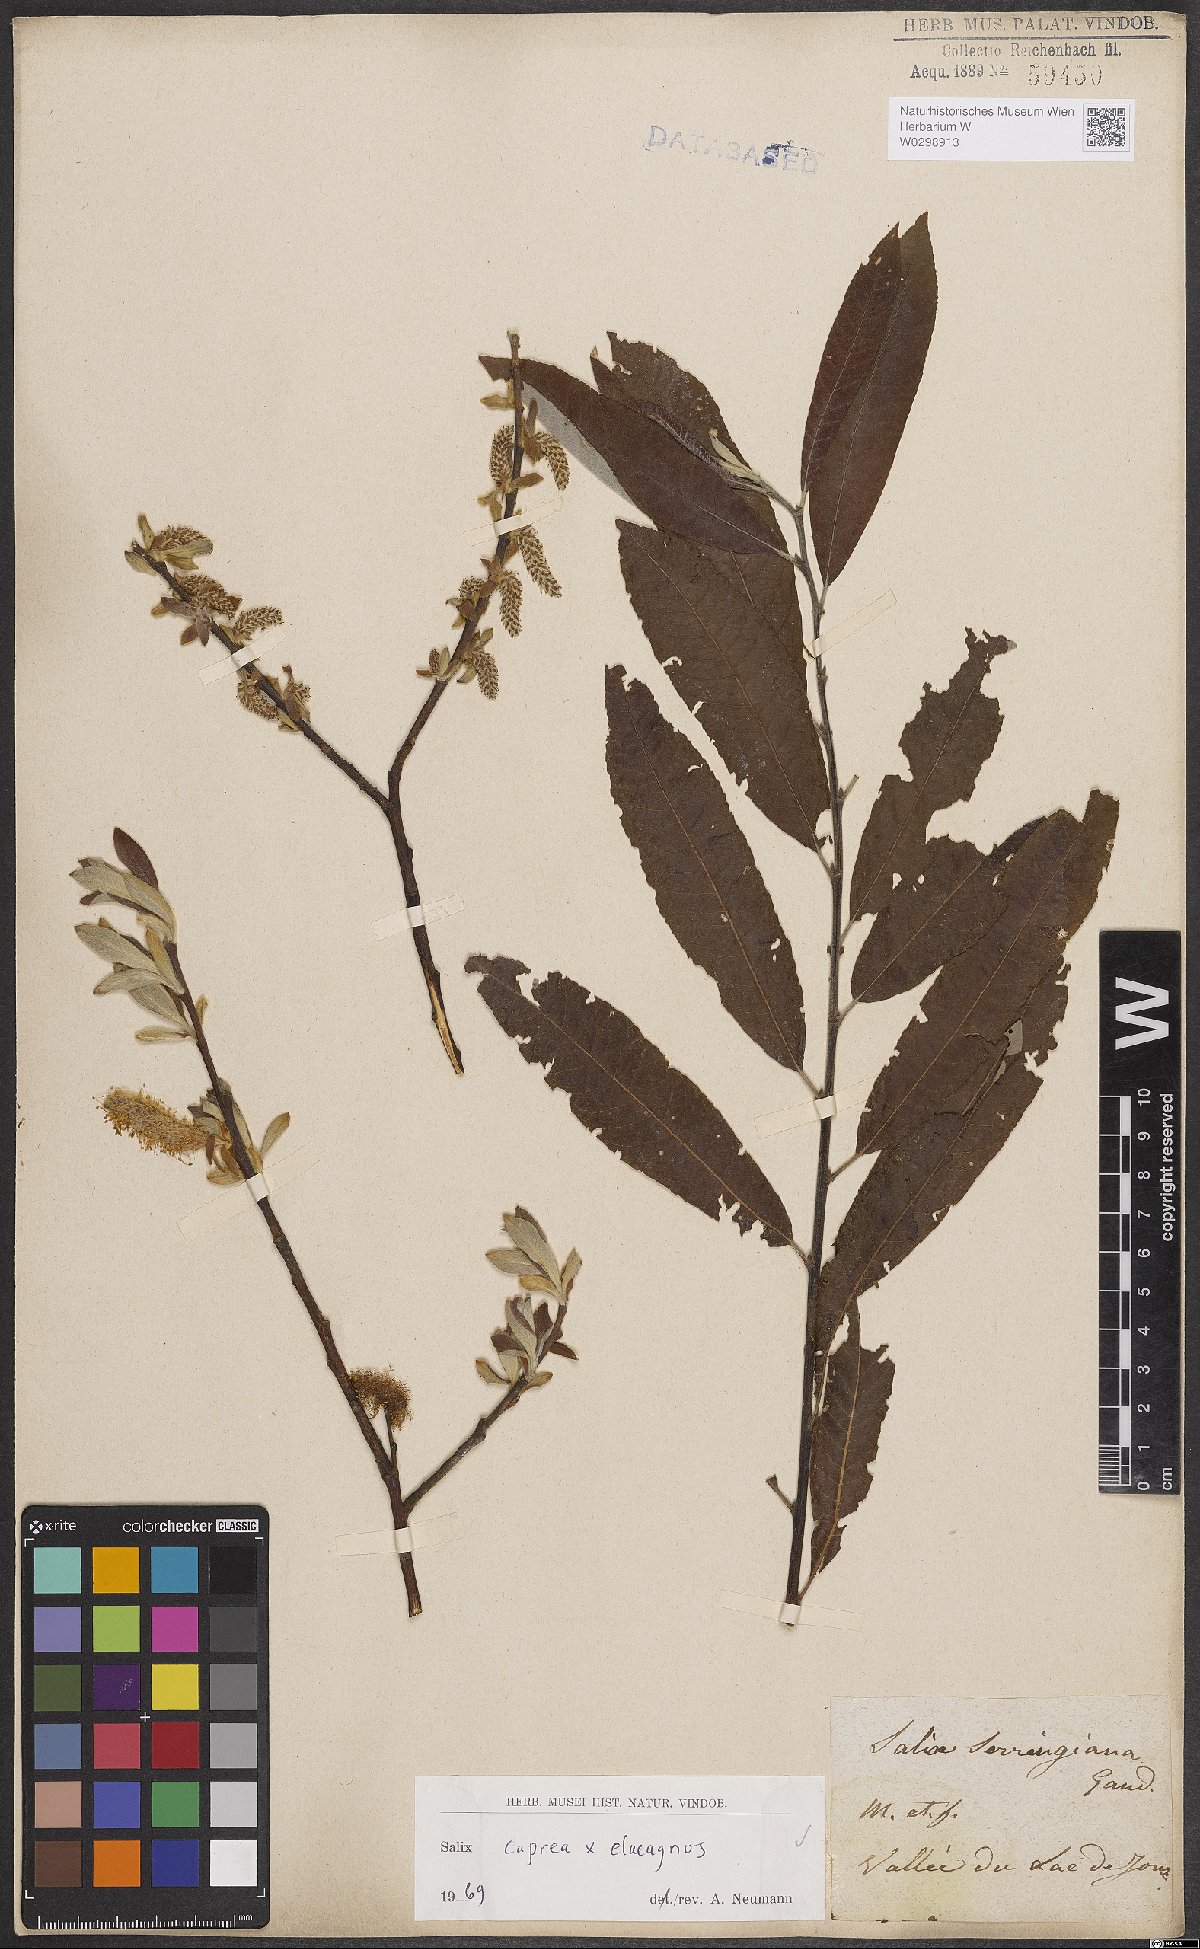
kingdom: Plantae
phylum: Tracheophyta
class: Magnoliopsida
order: Malpighiales
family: Salicaceae
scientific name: Salicaceae
